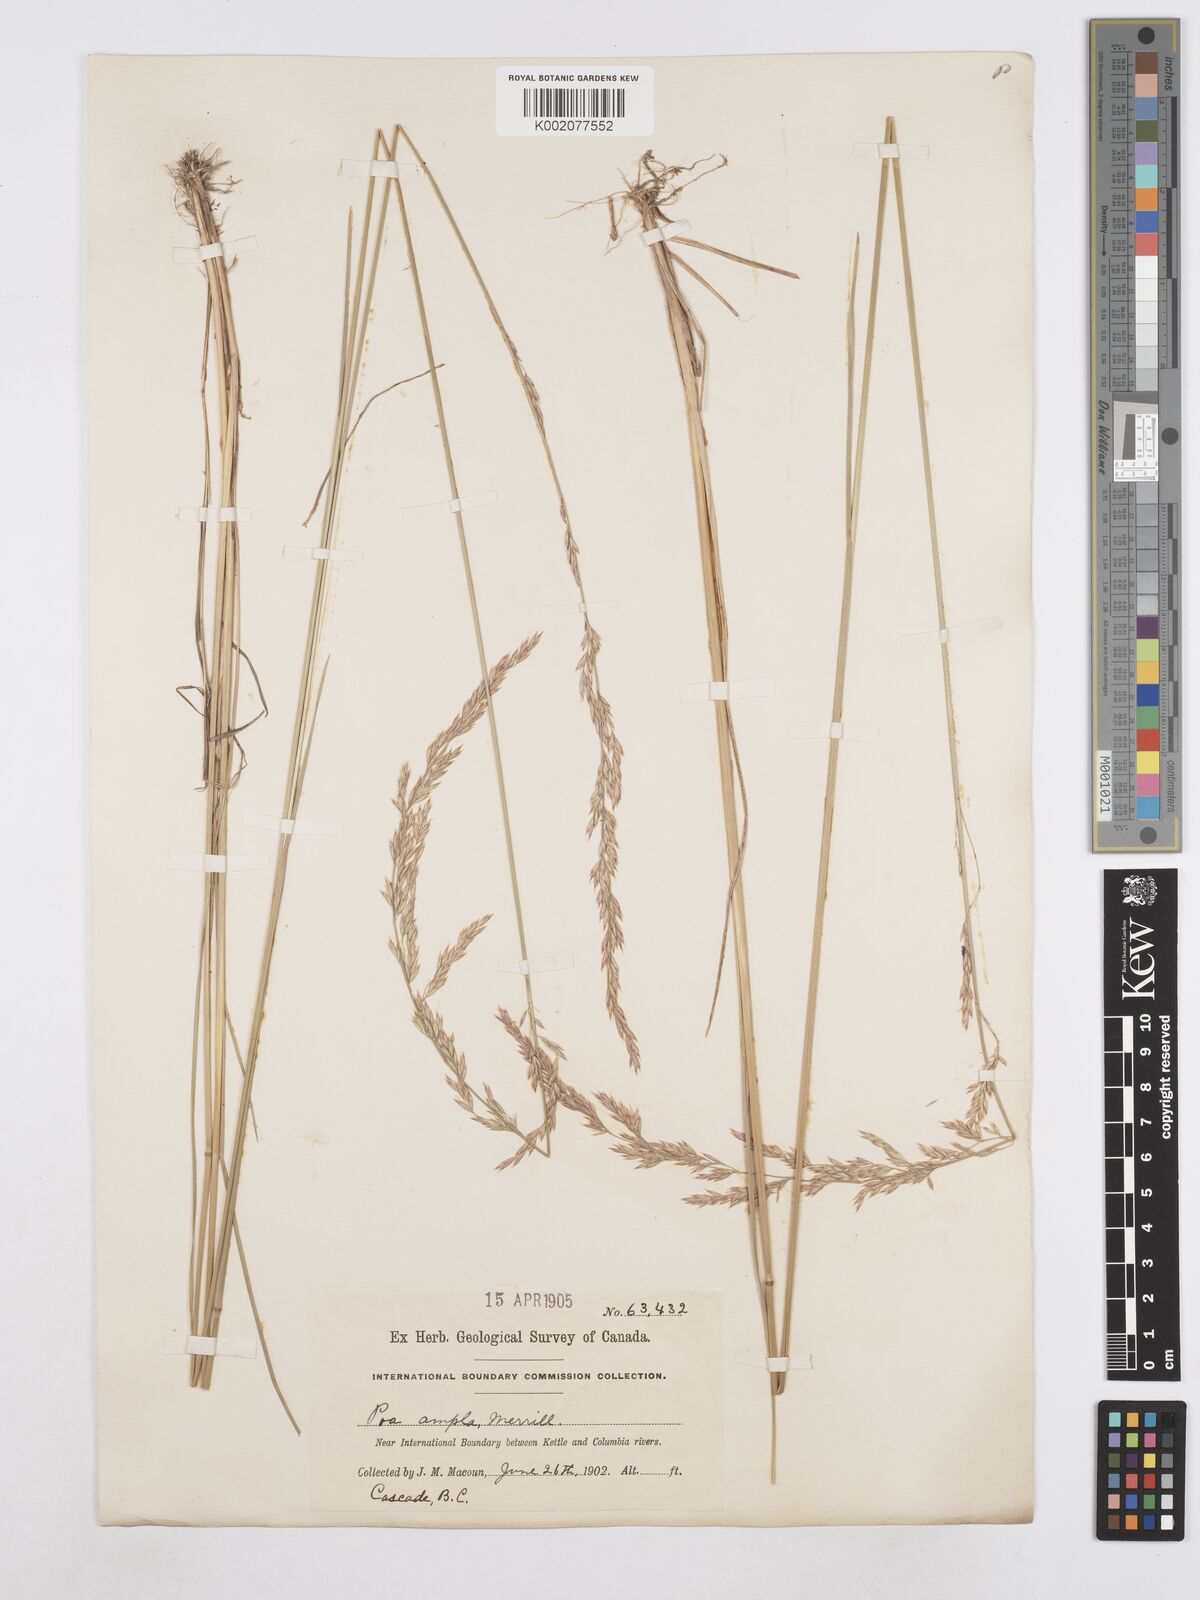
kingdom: Plantae
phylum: Tracheophyta
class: Liliopsida
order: Poales
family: Poaceae
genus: Poa
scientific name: Poa secunda
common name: Sandberg bluegrass
